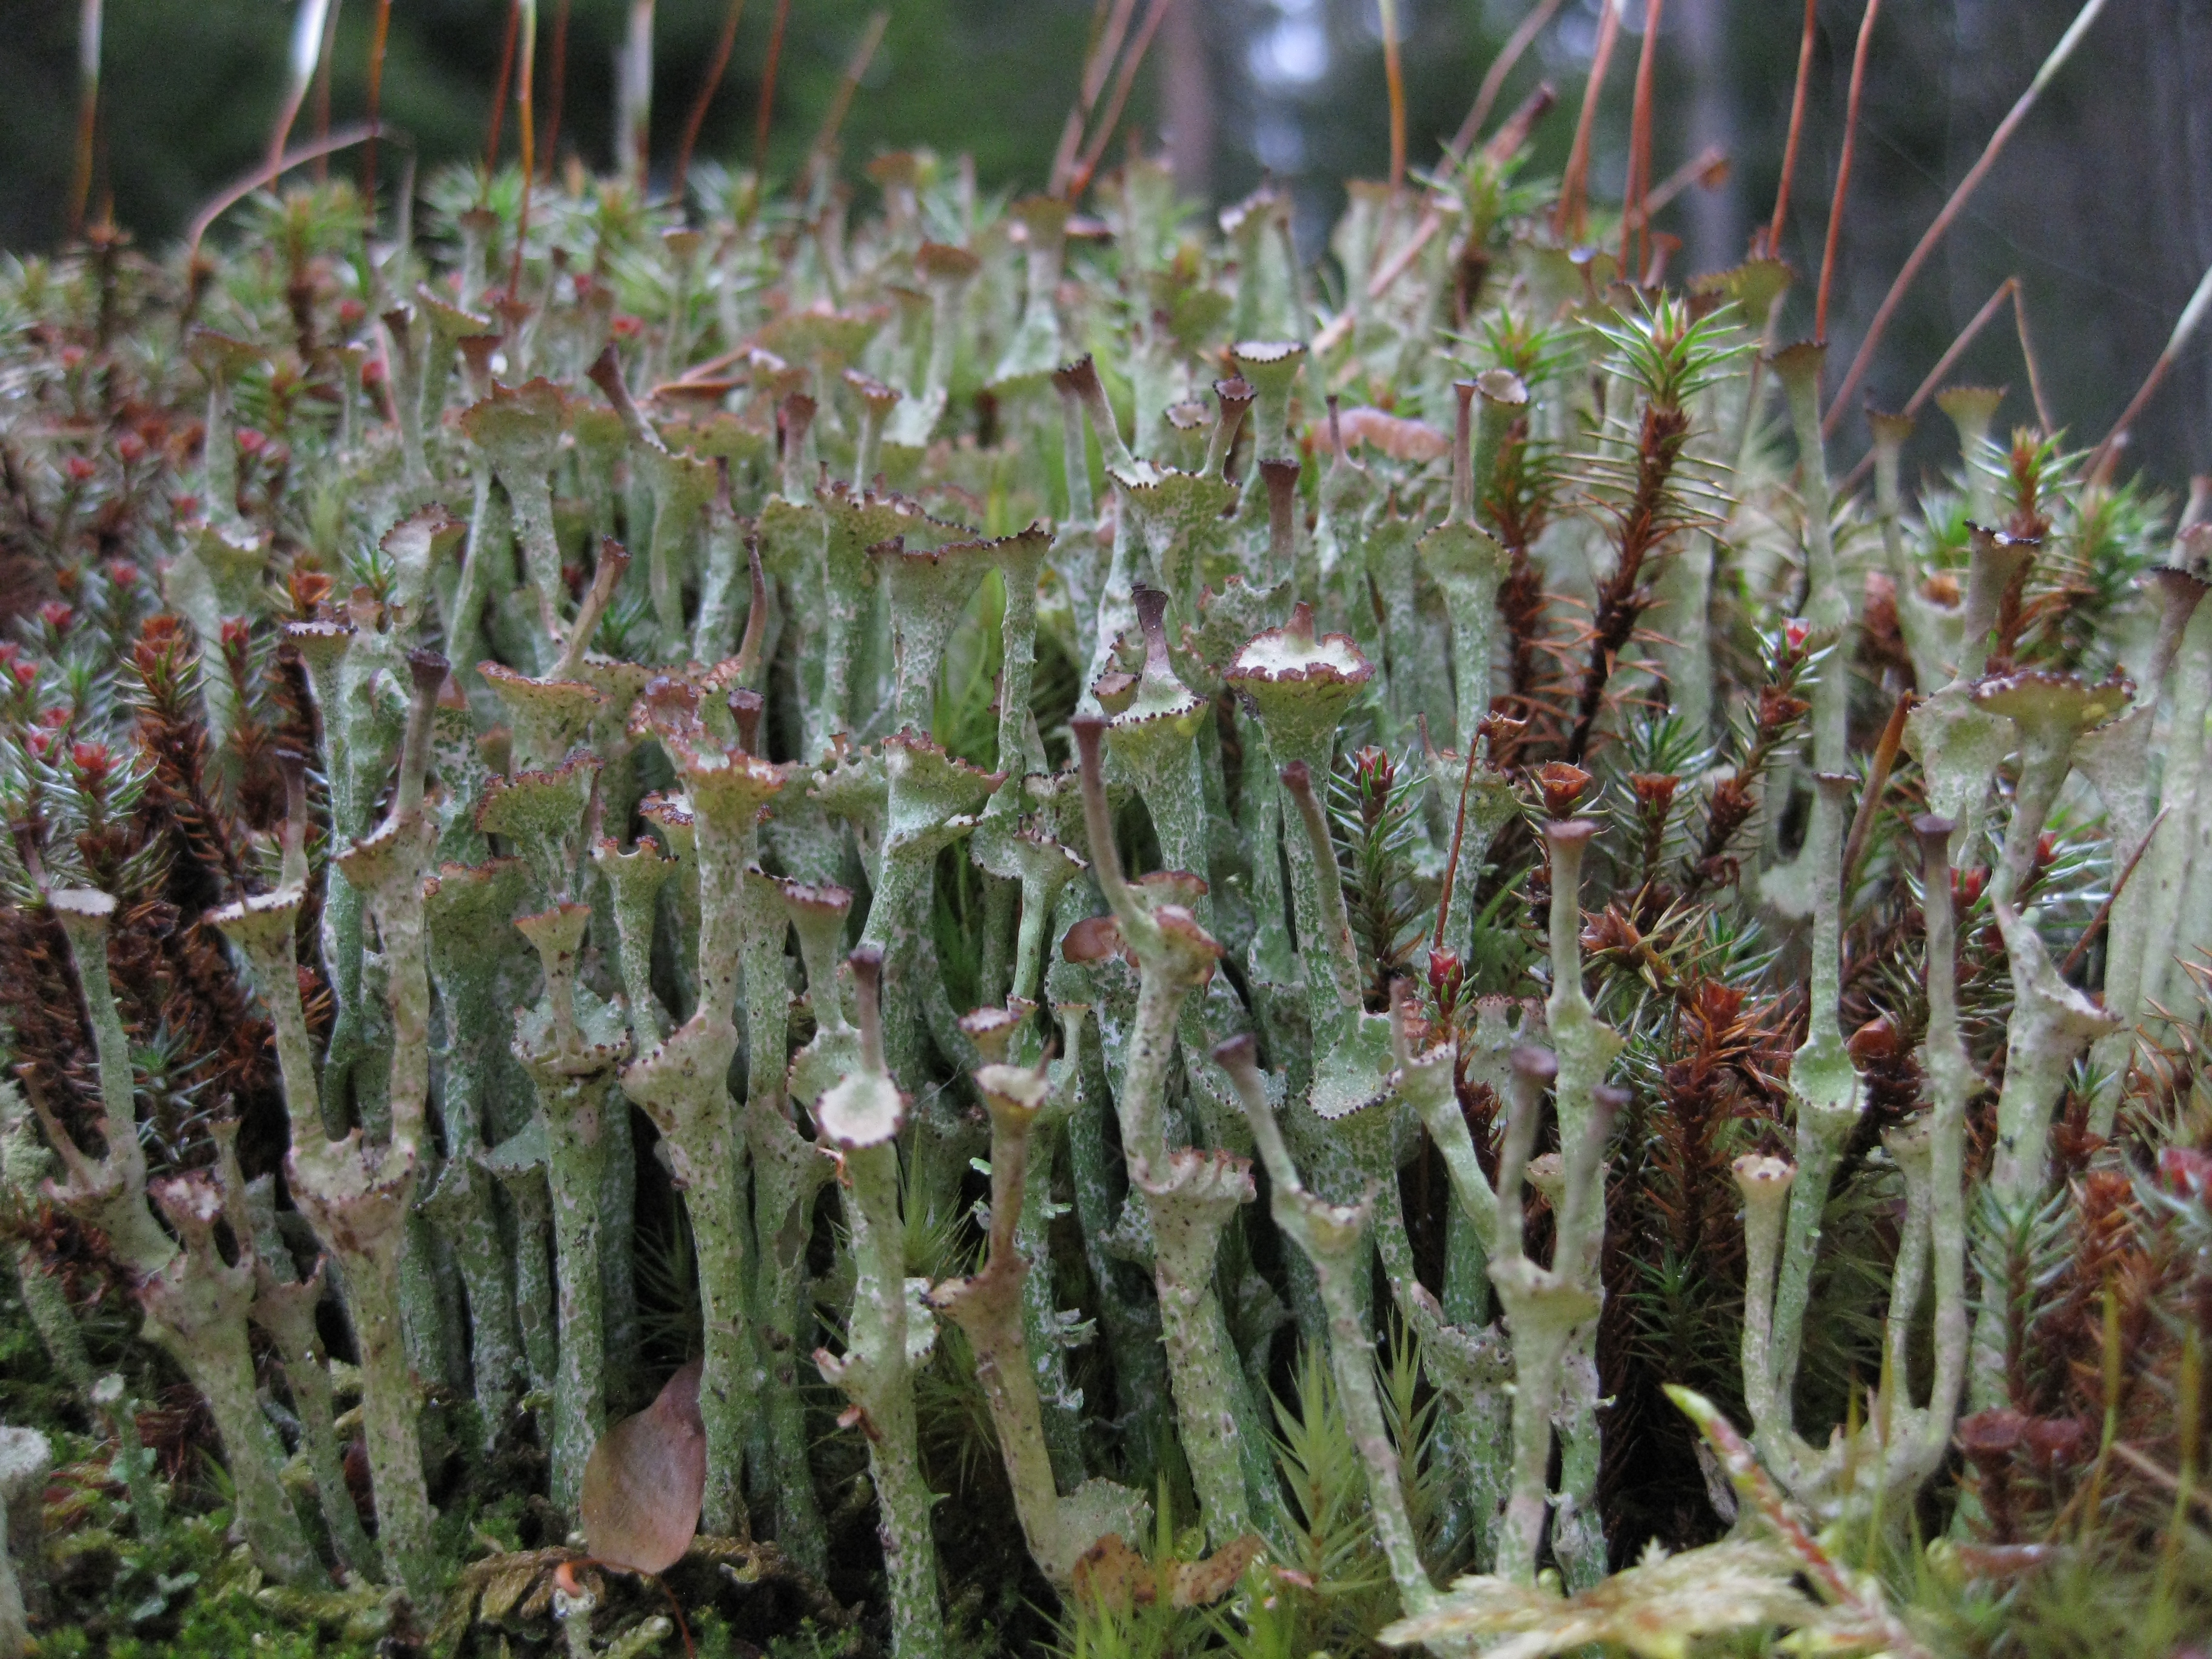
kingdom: Fungi
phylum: Ascomycota
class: Lecanoromycetes
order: Lecanorales
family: Cladoniaceae
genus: Cladonia
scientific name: Cladonia
